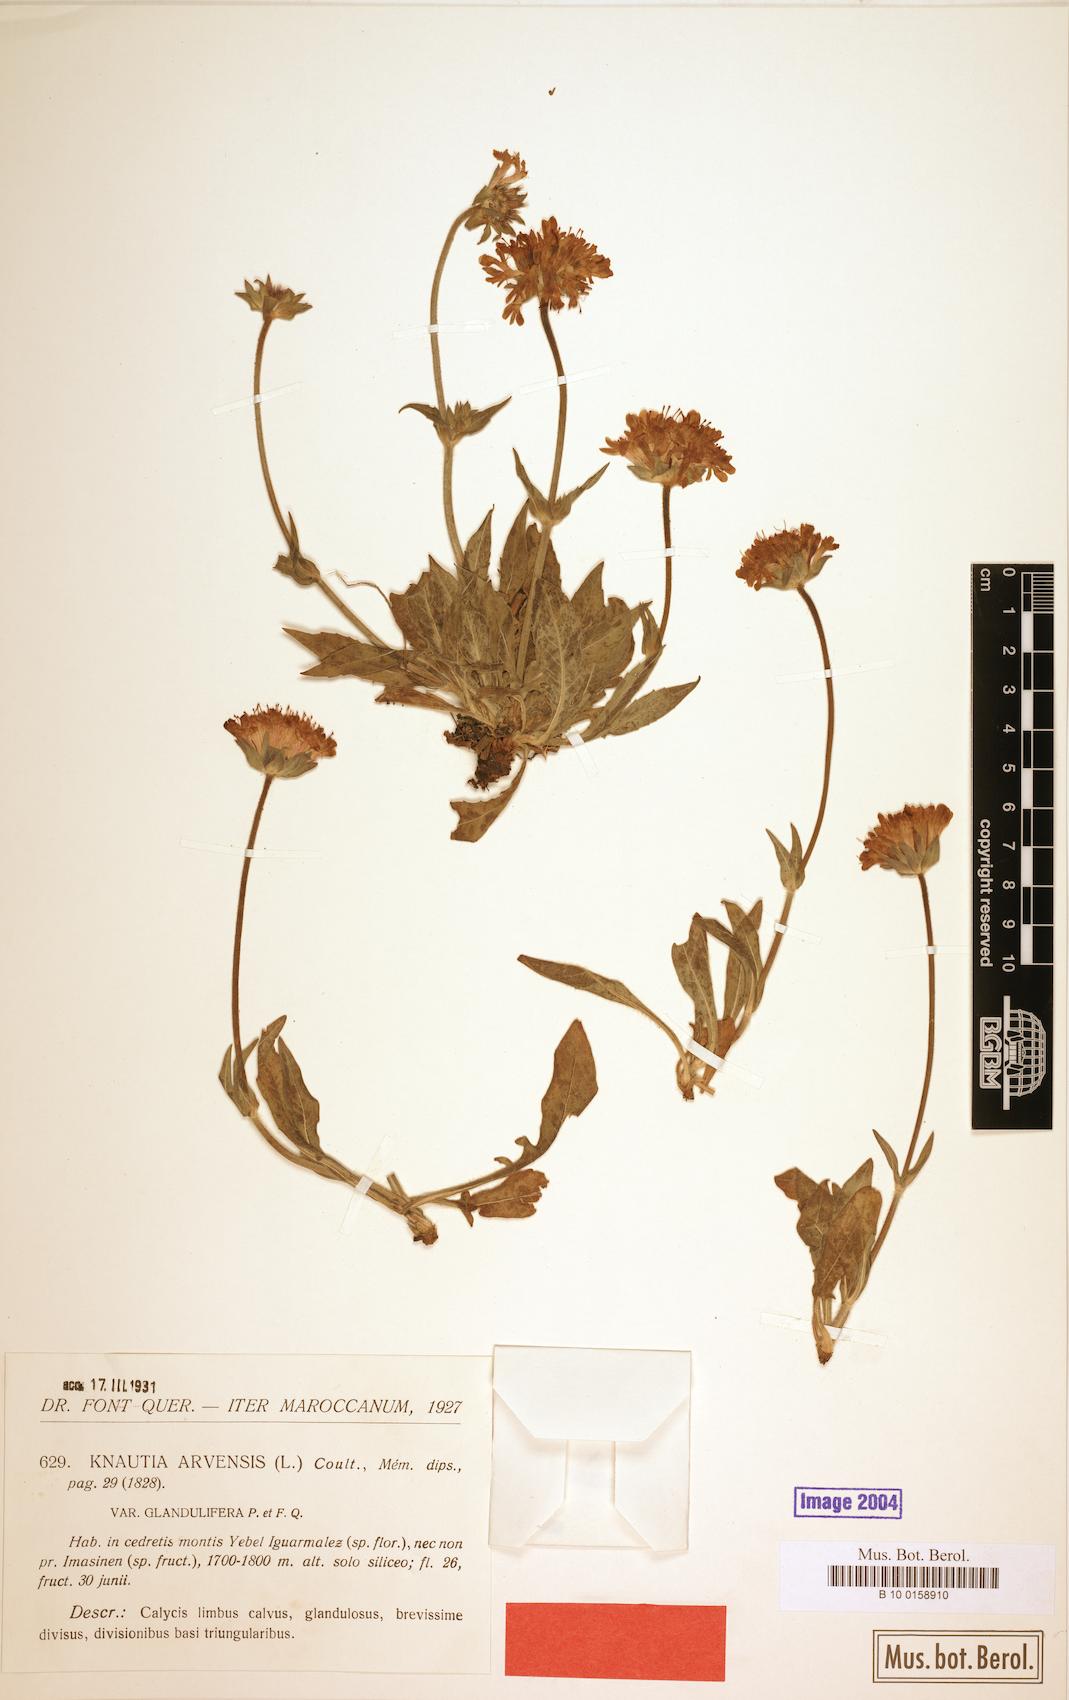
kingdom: Plantae
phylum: Tracheophyta
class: Magnoliopsida
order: Dipsacales
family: Caprifoliaceae
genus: Knautia
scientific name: Knautia mauritanica
